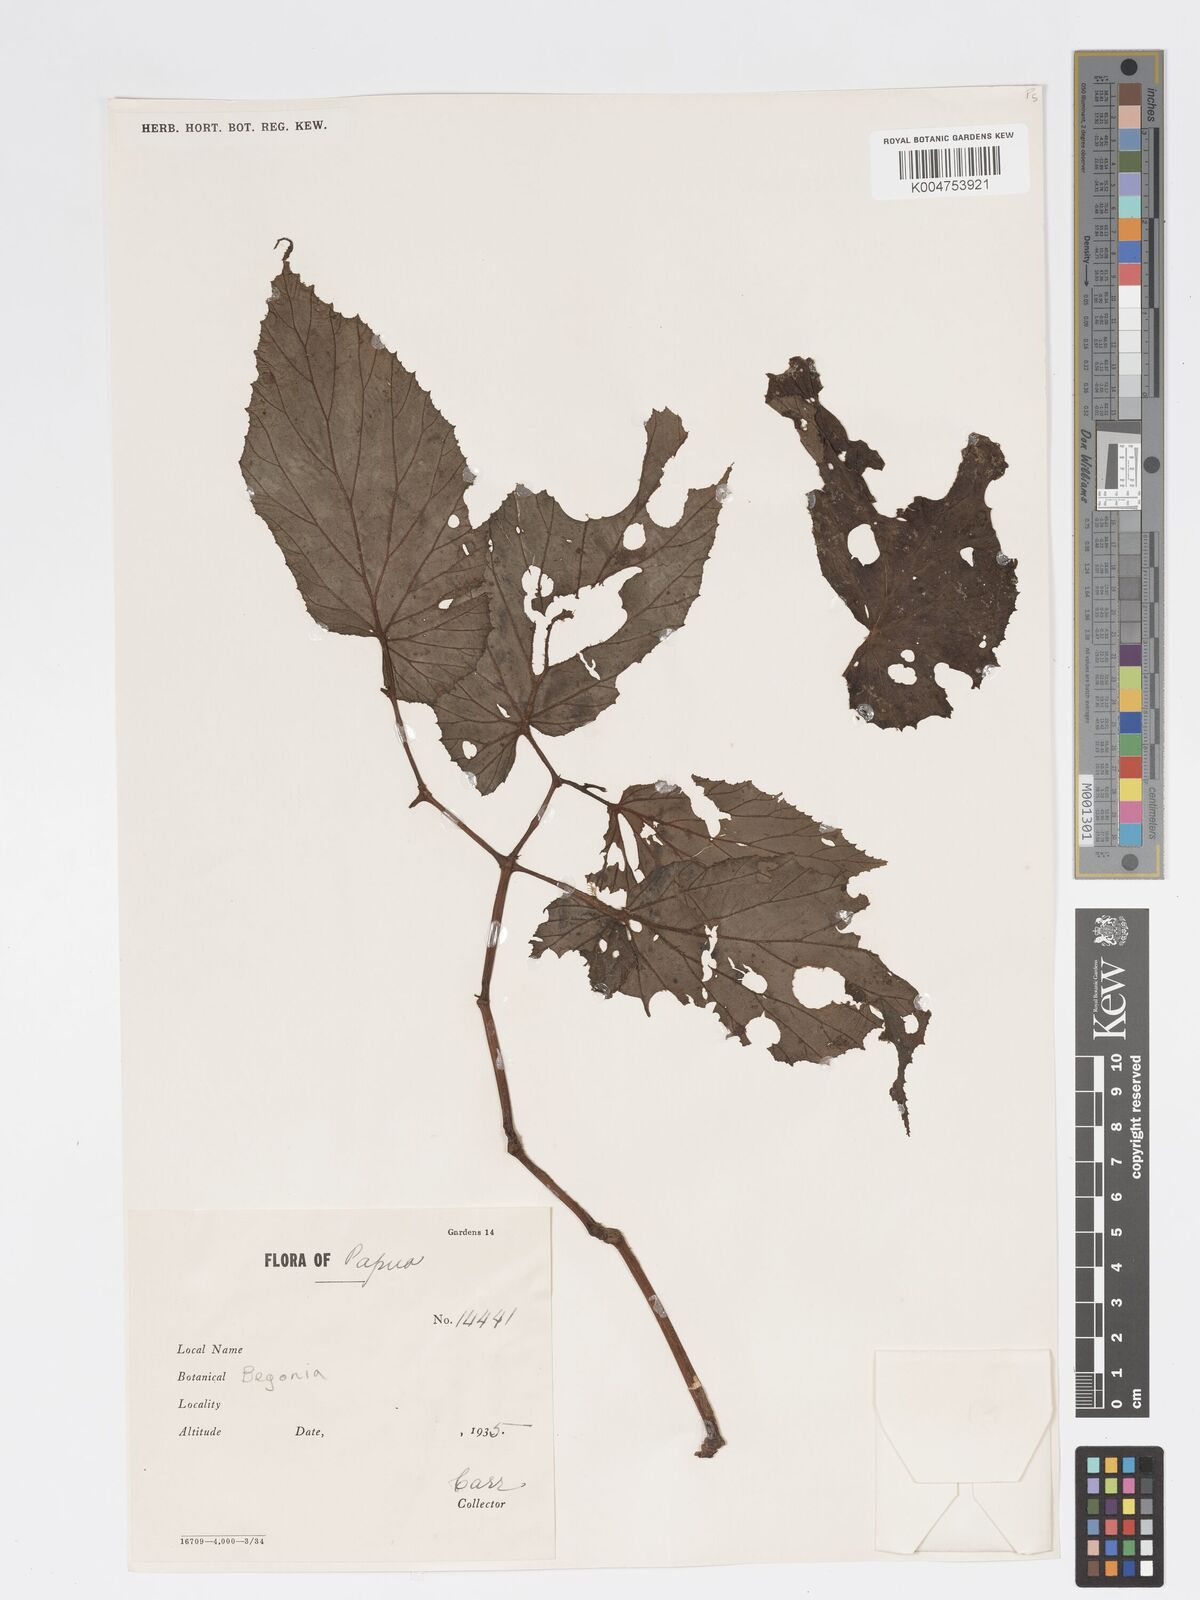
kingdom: Plantae
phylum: Tracheophyta
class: Magnoliopsida
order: Cucurbitales
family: Begoniaceae
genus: Begonia
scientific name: Begonia wollastonii
